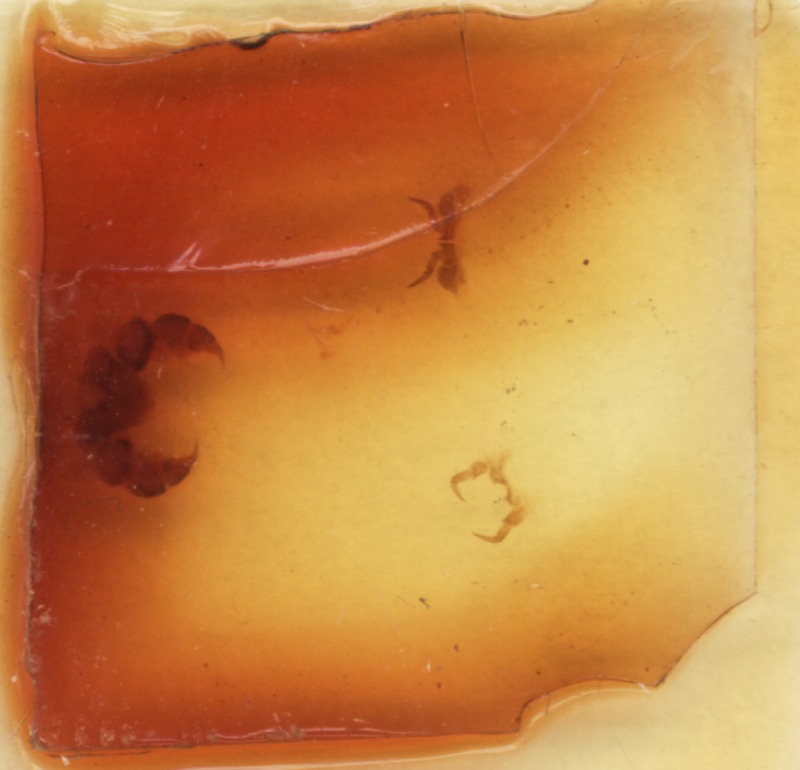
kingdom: Animalia
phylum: Arthropoda
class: Diplopoda
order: Glomerida
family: Glomeridae
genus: Glomeris
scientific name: Glomeris hexasticha
